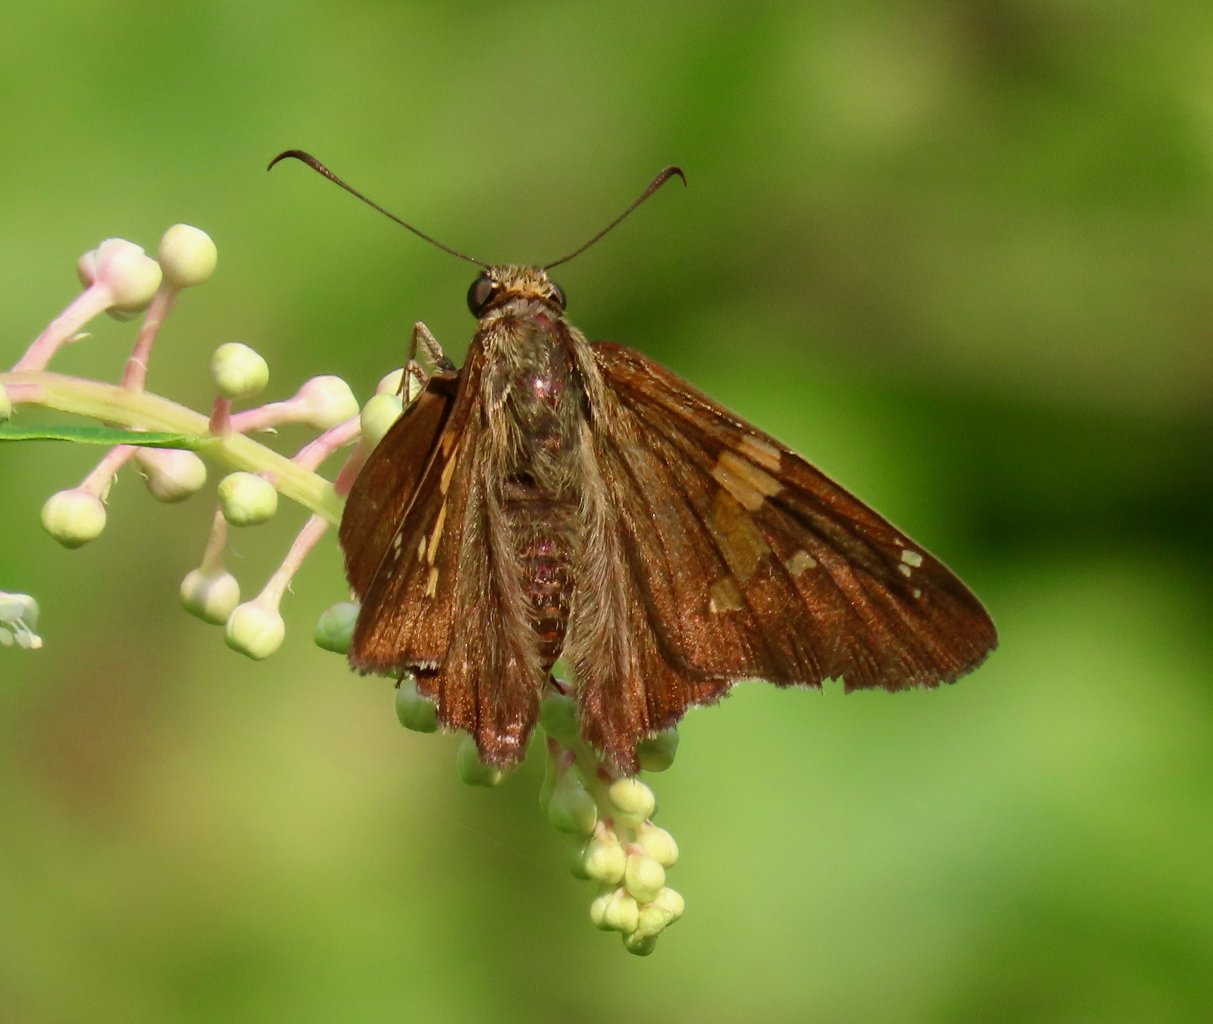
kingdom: Animalia
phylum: Arthropoda
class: Insecta
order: Lepidoptera
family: Hesperiidae
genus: Epargyreus
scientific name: Epargyreus clarus
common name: Silver-spotted Skipper
